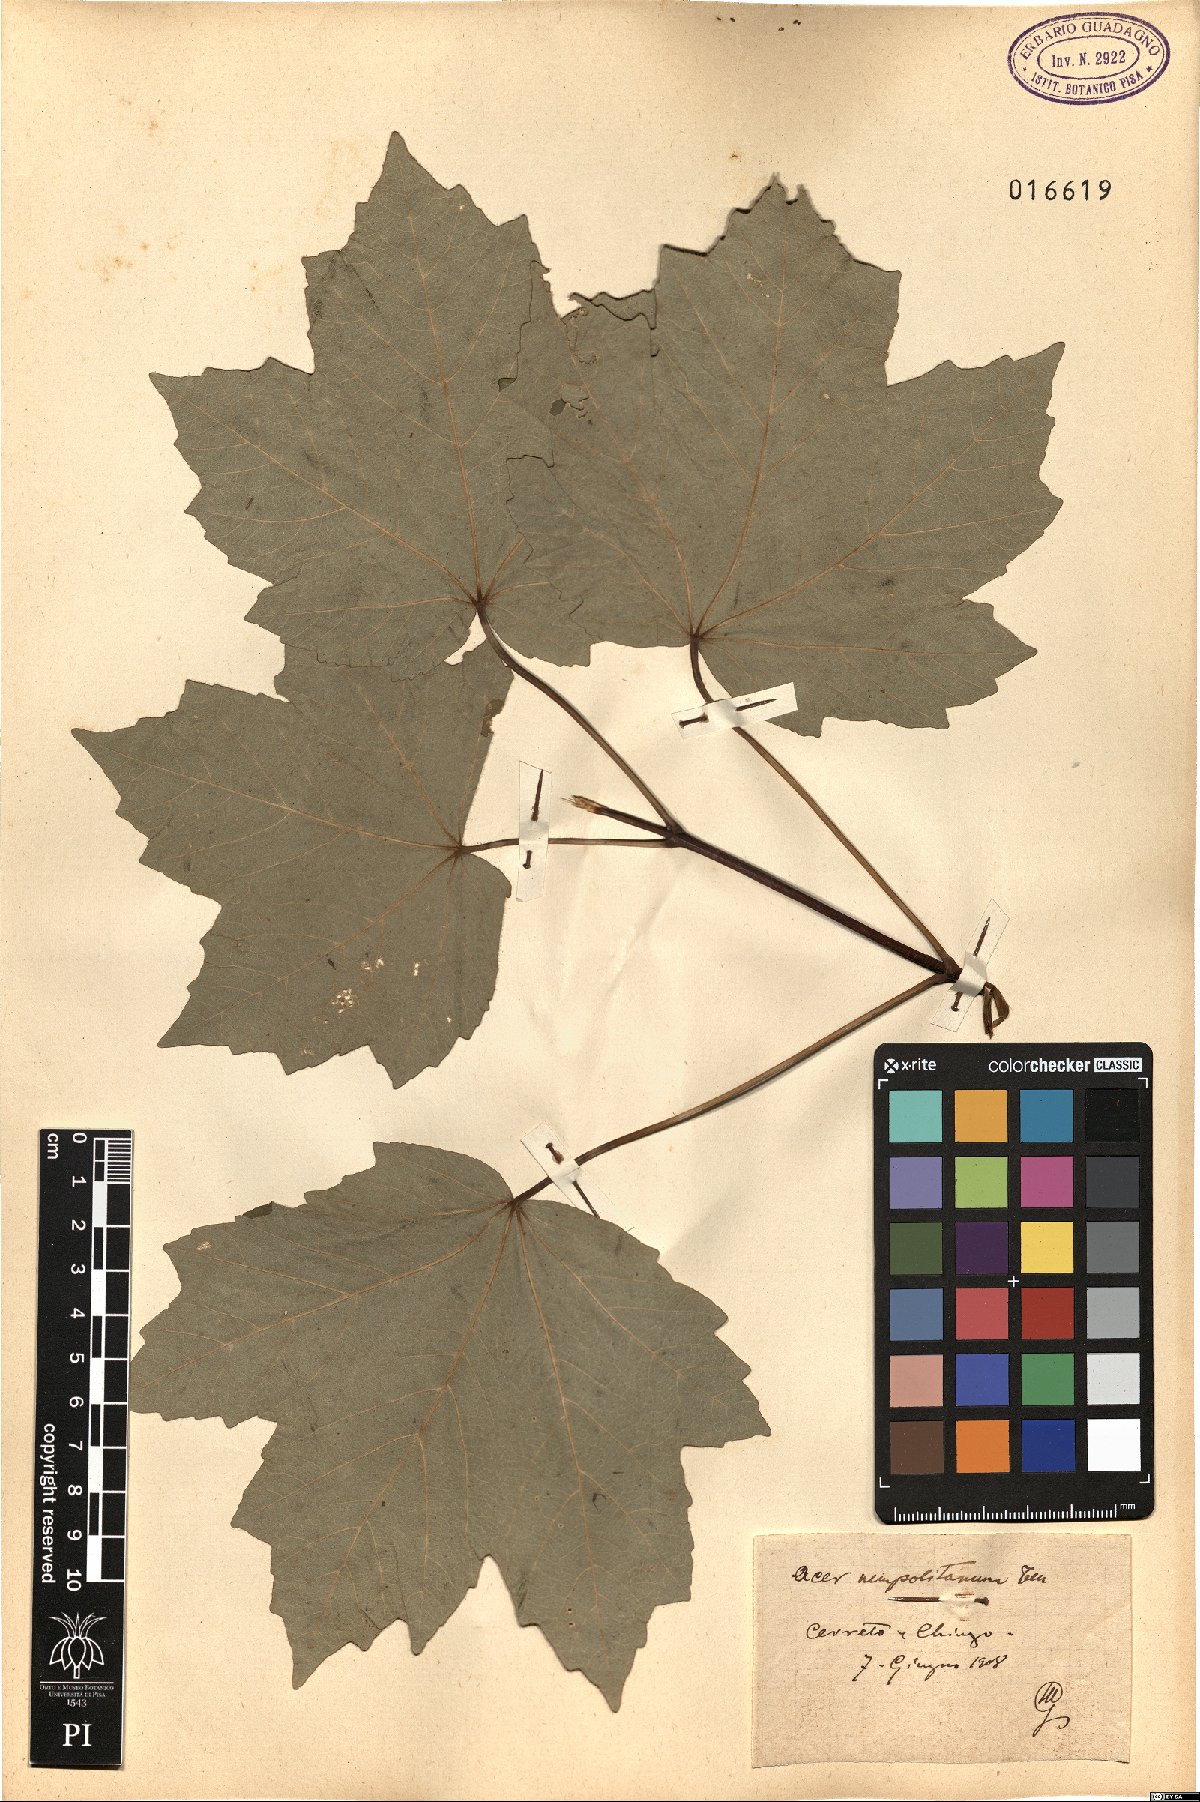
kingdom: Plantae
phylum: Tracheophyta
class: Magnoliopsida
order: Sapindales
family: Sapindaceae
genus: Acer
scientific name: Acer obtusatum
